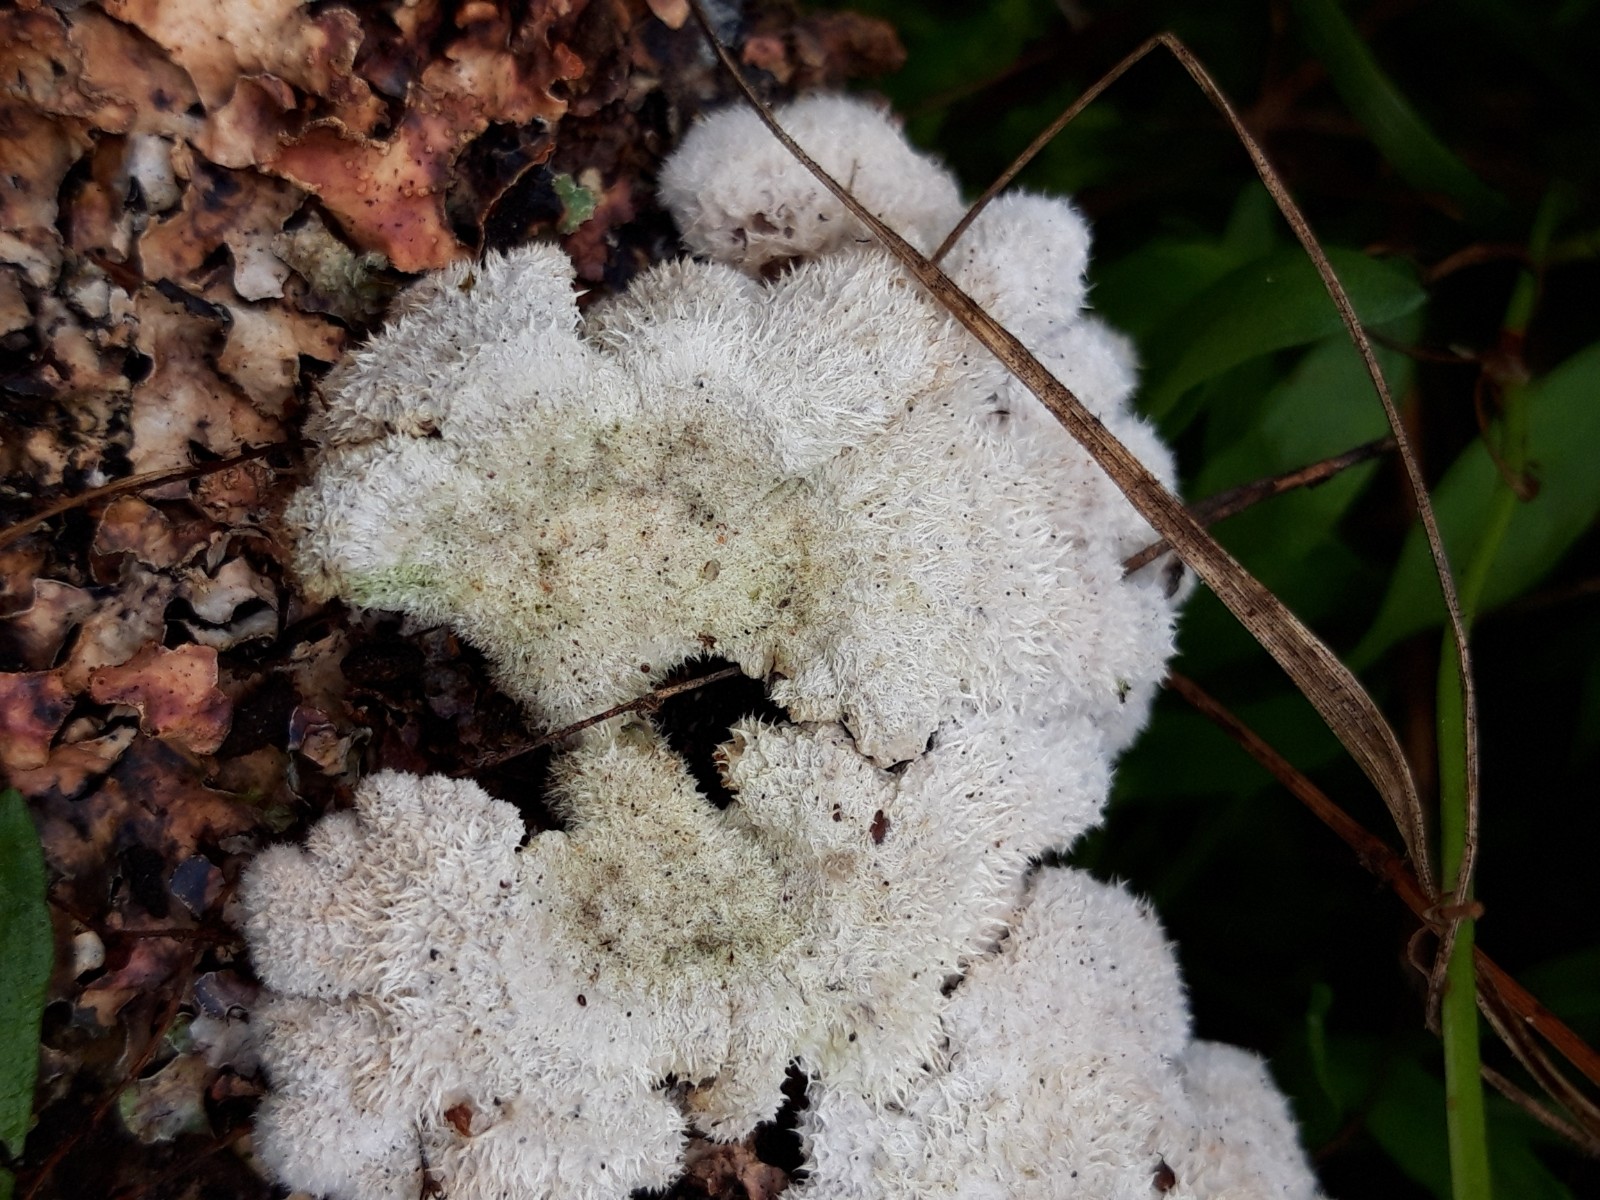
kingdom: Fungi
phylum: Basidiomycota
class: Agaricomycetes
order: Agaricales
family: Schizophyllaceae
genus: Schizophyllum
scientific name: Schizophyllum commune
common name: kløvblad
